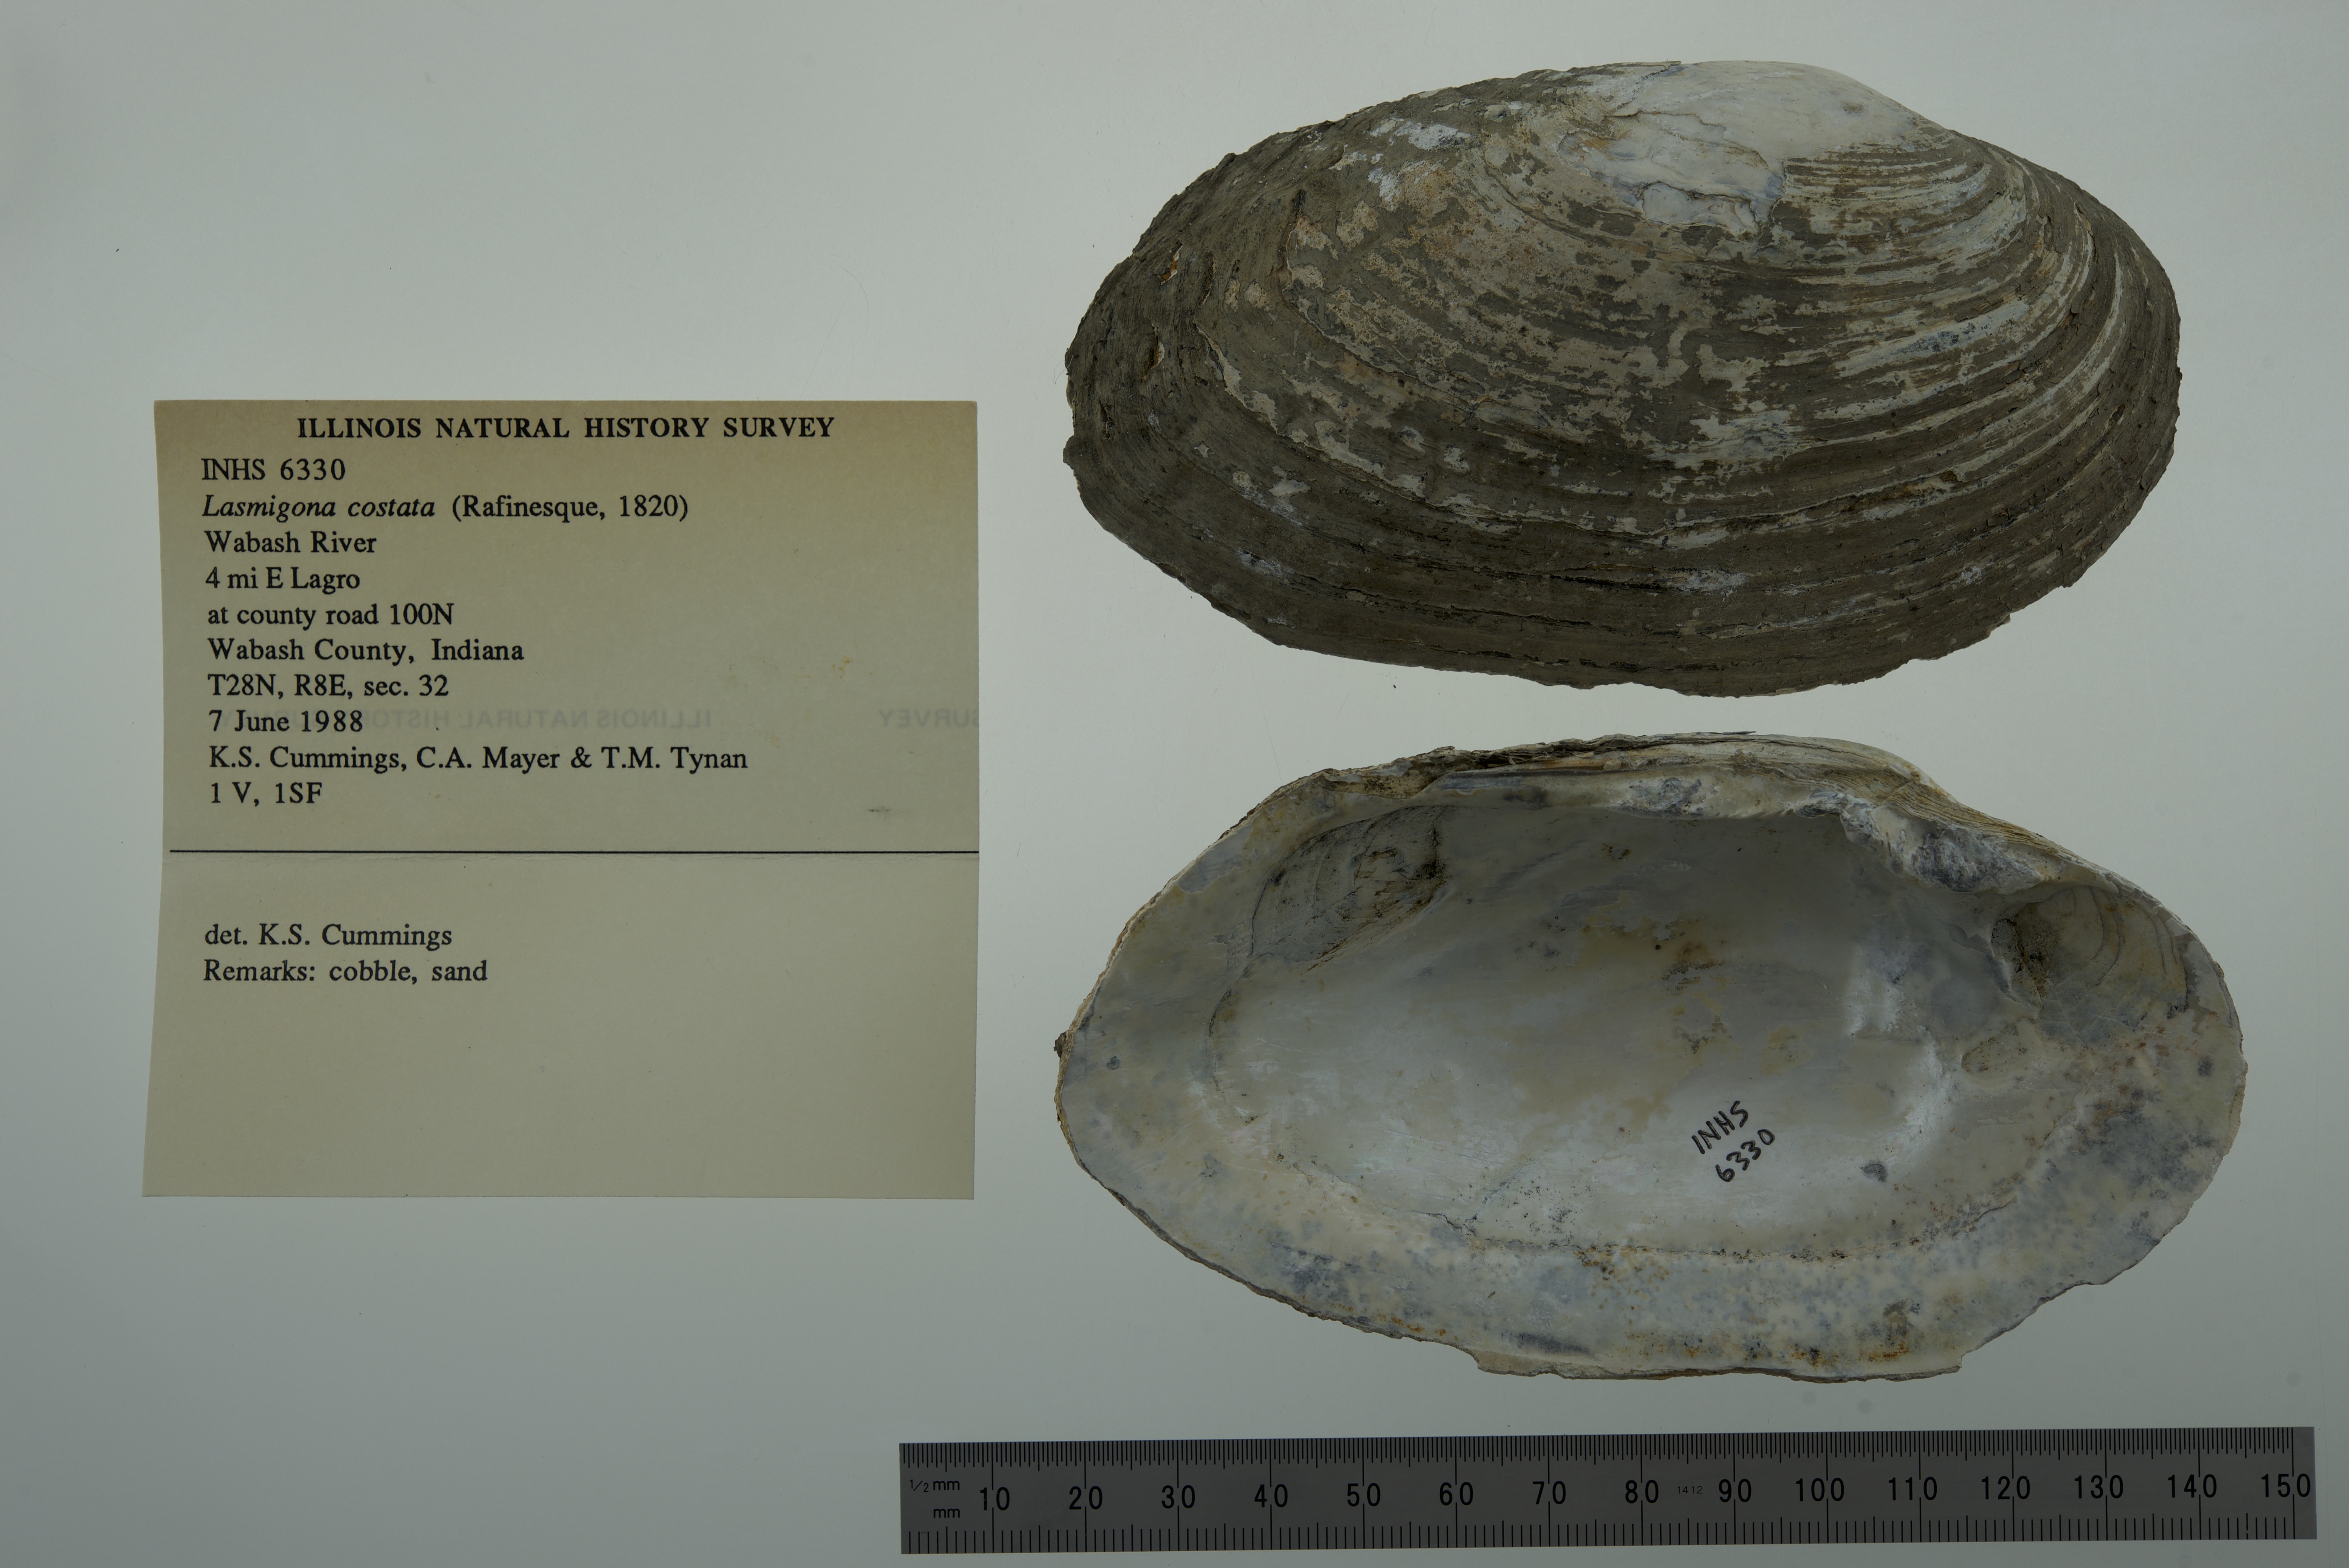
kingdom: Animalia
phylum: Mollusca
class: Bivalvia
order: Unionida
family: Unionidae
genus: Lasmigona
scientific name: Lasmigona costata
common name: Flutedshell
